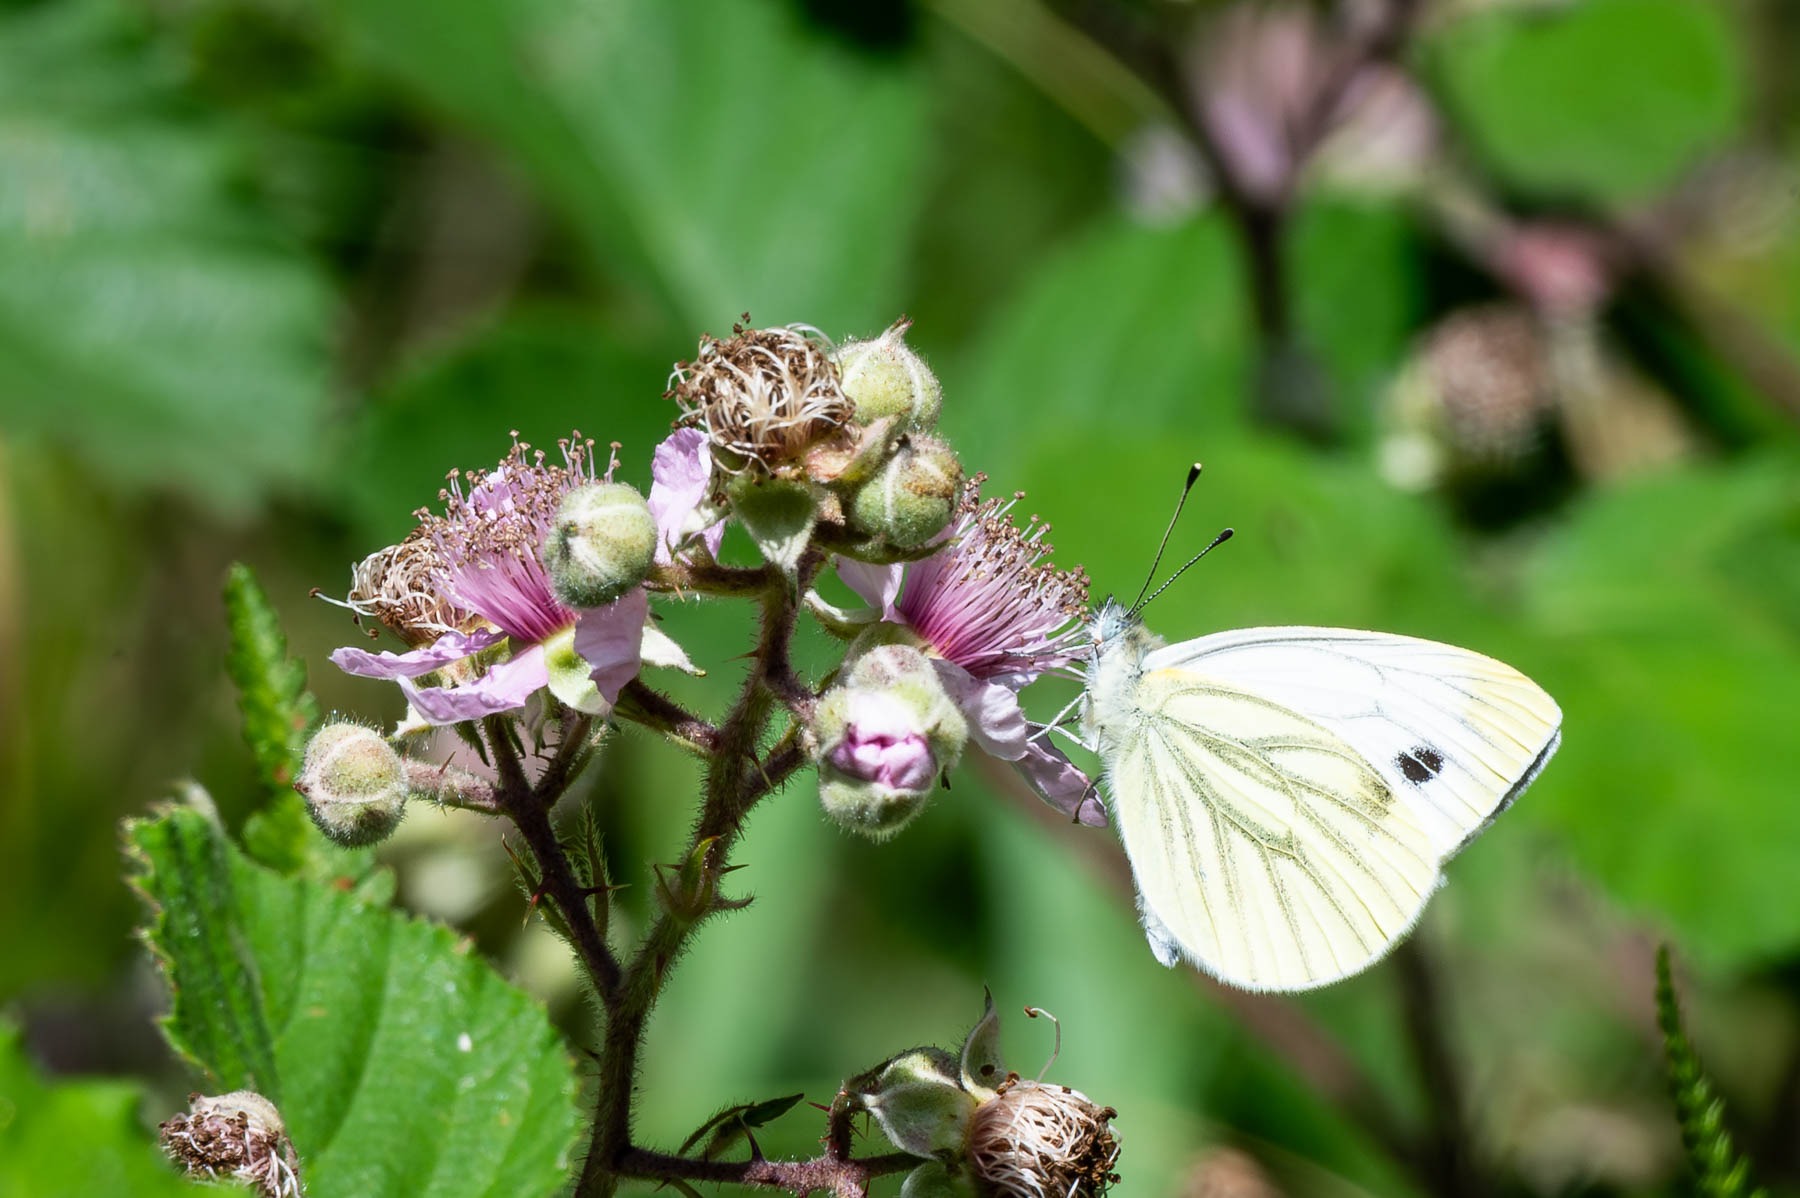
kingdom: Animalia
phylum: Arthropoda
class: Insecta
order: Lepidoptera
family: Pieridae
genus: Pieris
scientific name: Pieris napi
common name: Grønåret kålsommerfugl
